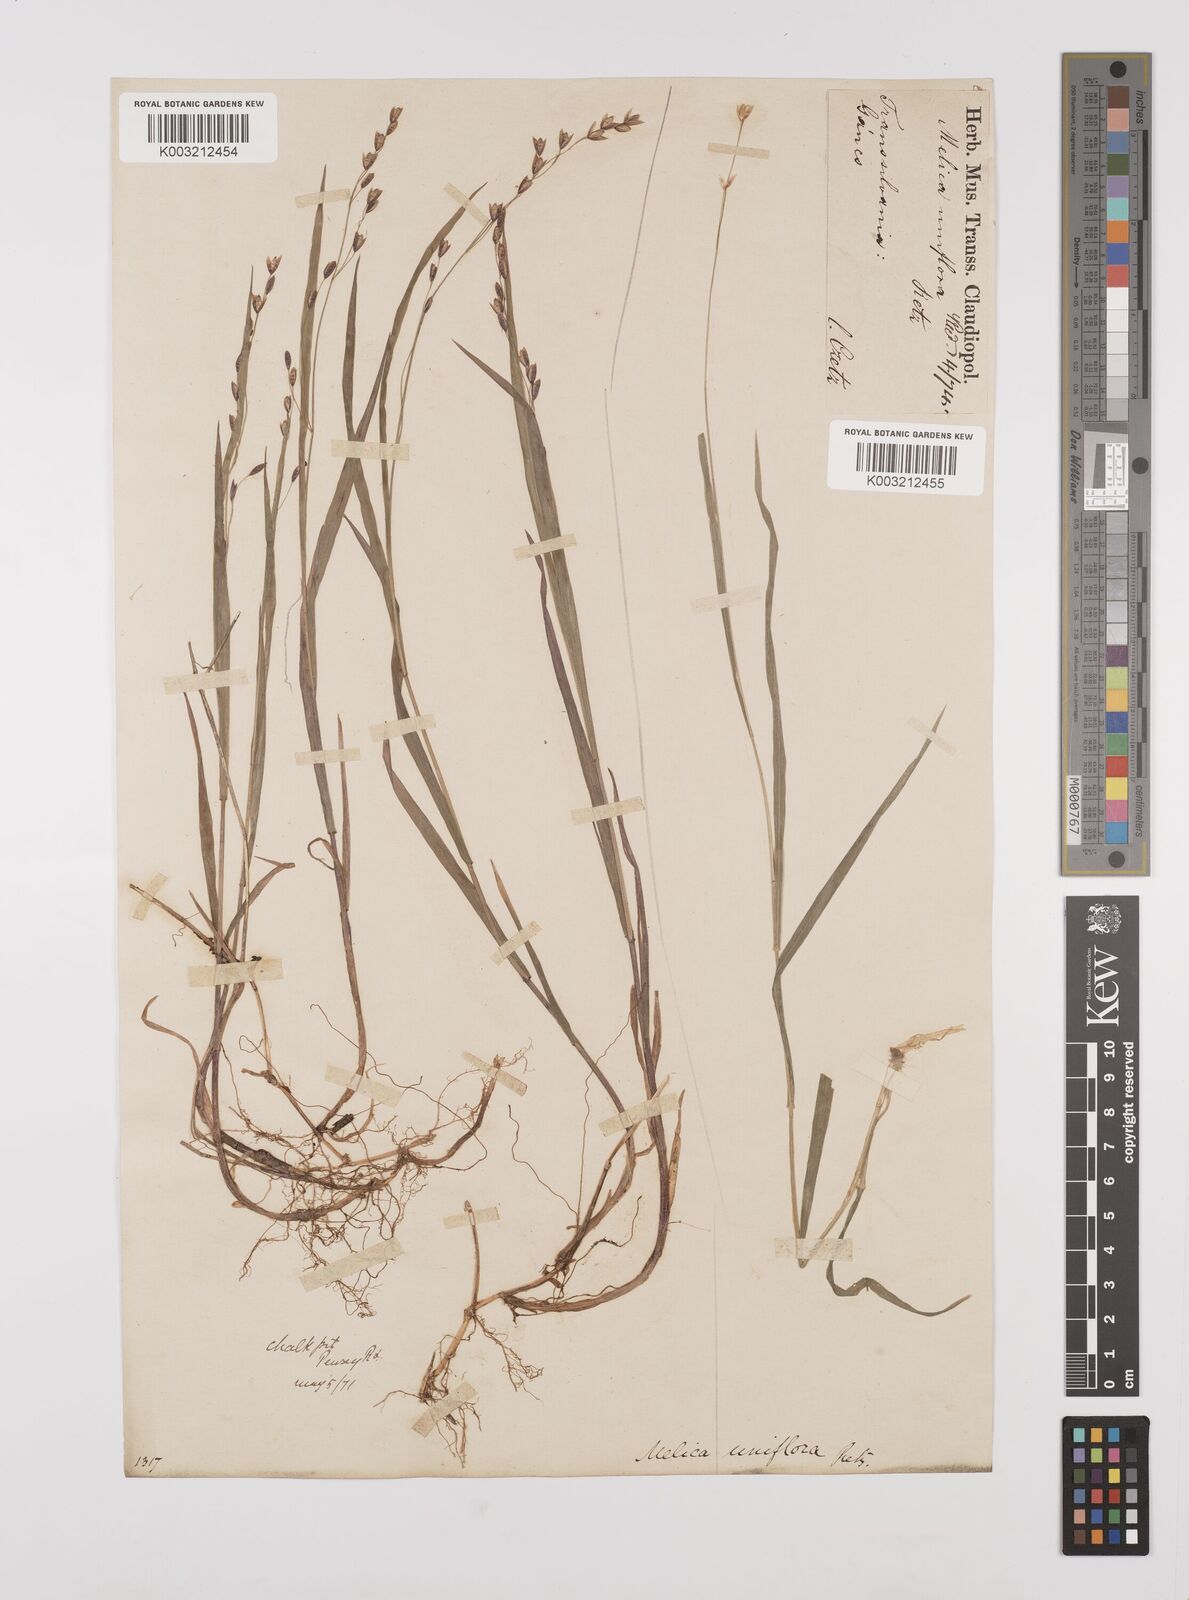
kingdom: Plantae
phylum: Tracheophyta
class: Liliopsida
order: Poales
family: Poaceae
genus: Melica
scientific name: Melica uniflora
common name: Wood melick
